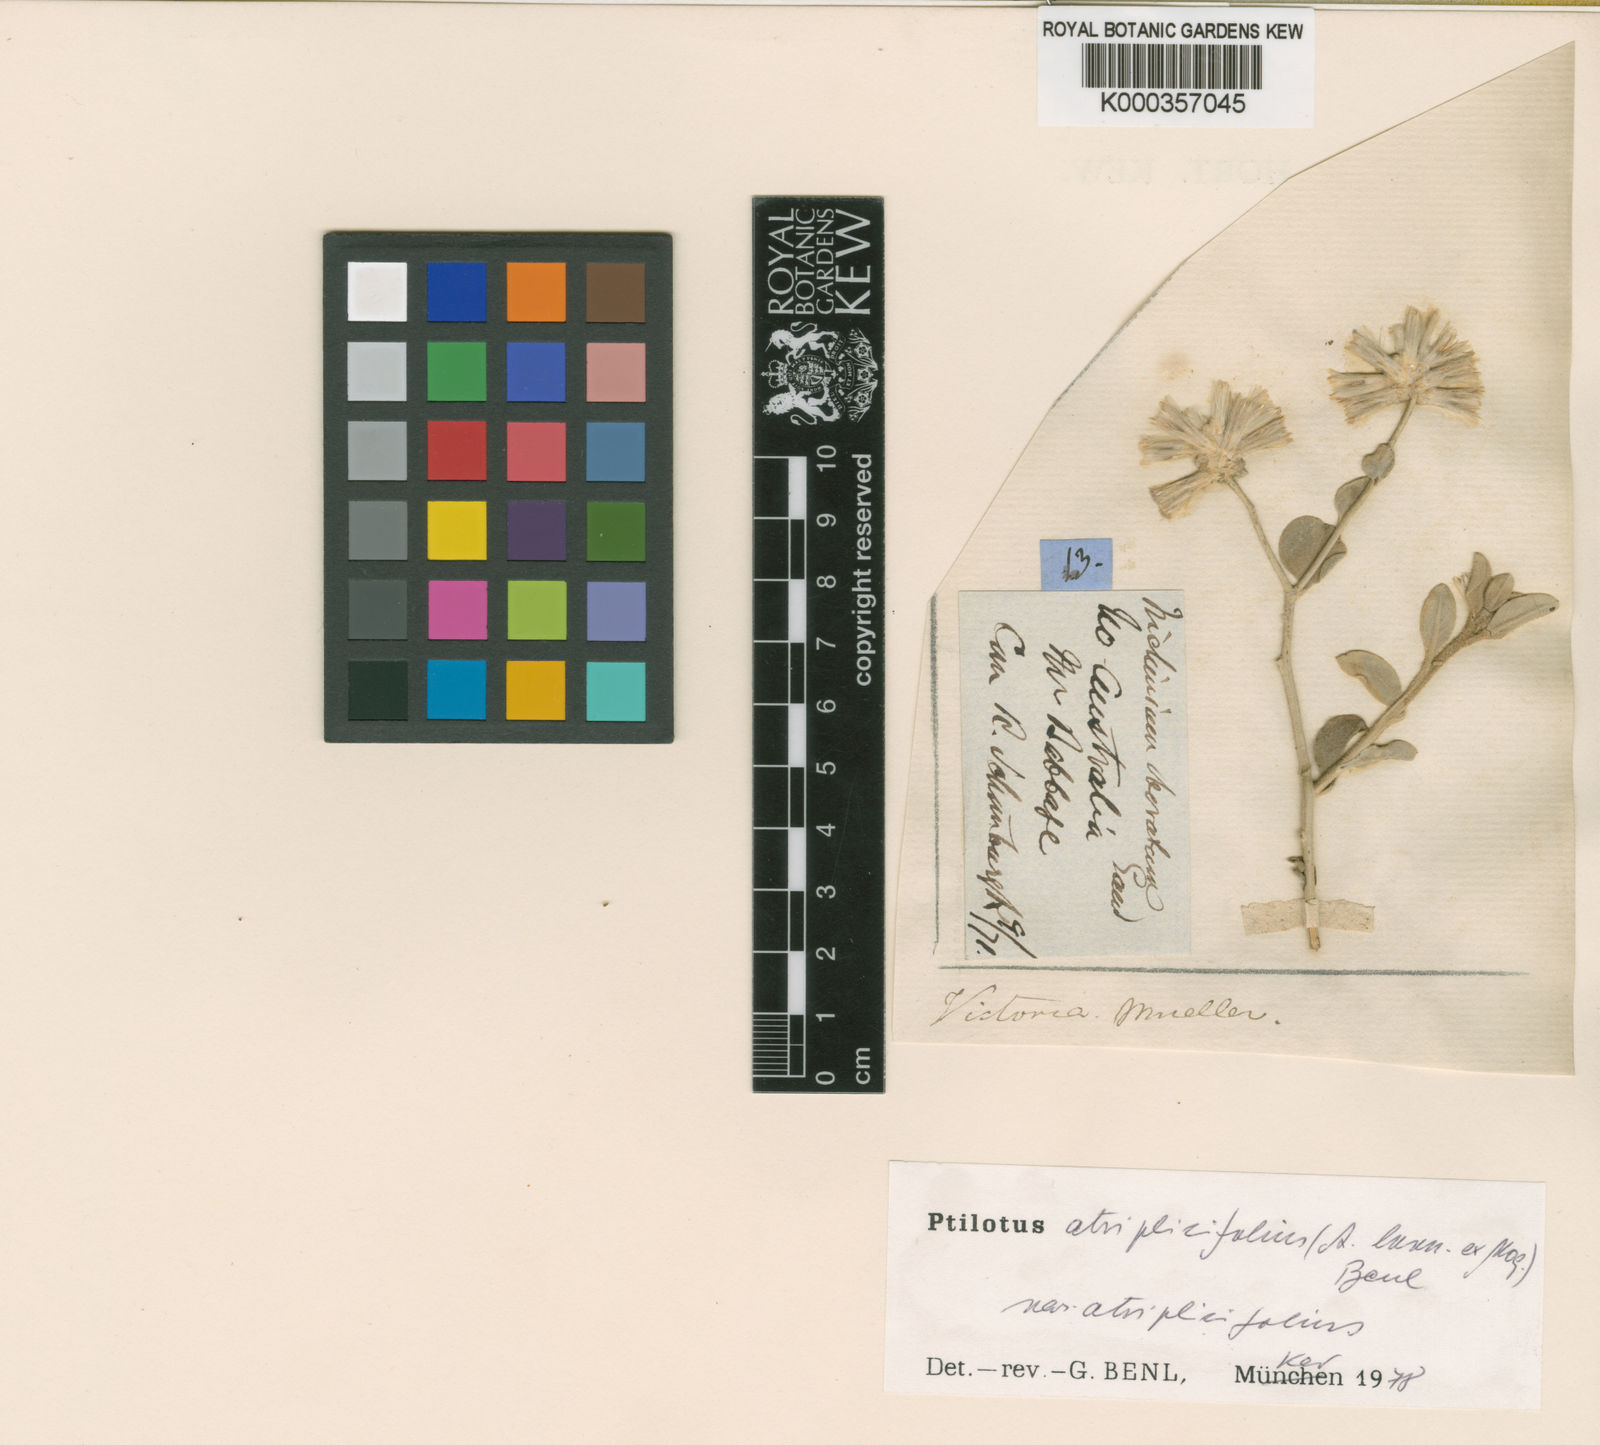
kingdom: Plantae
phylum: Tracheophyta
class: Magnoliopsida
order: Caryophyllales
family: Amaranthaceae
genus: Ptilotus
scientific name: Ptilotus
